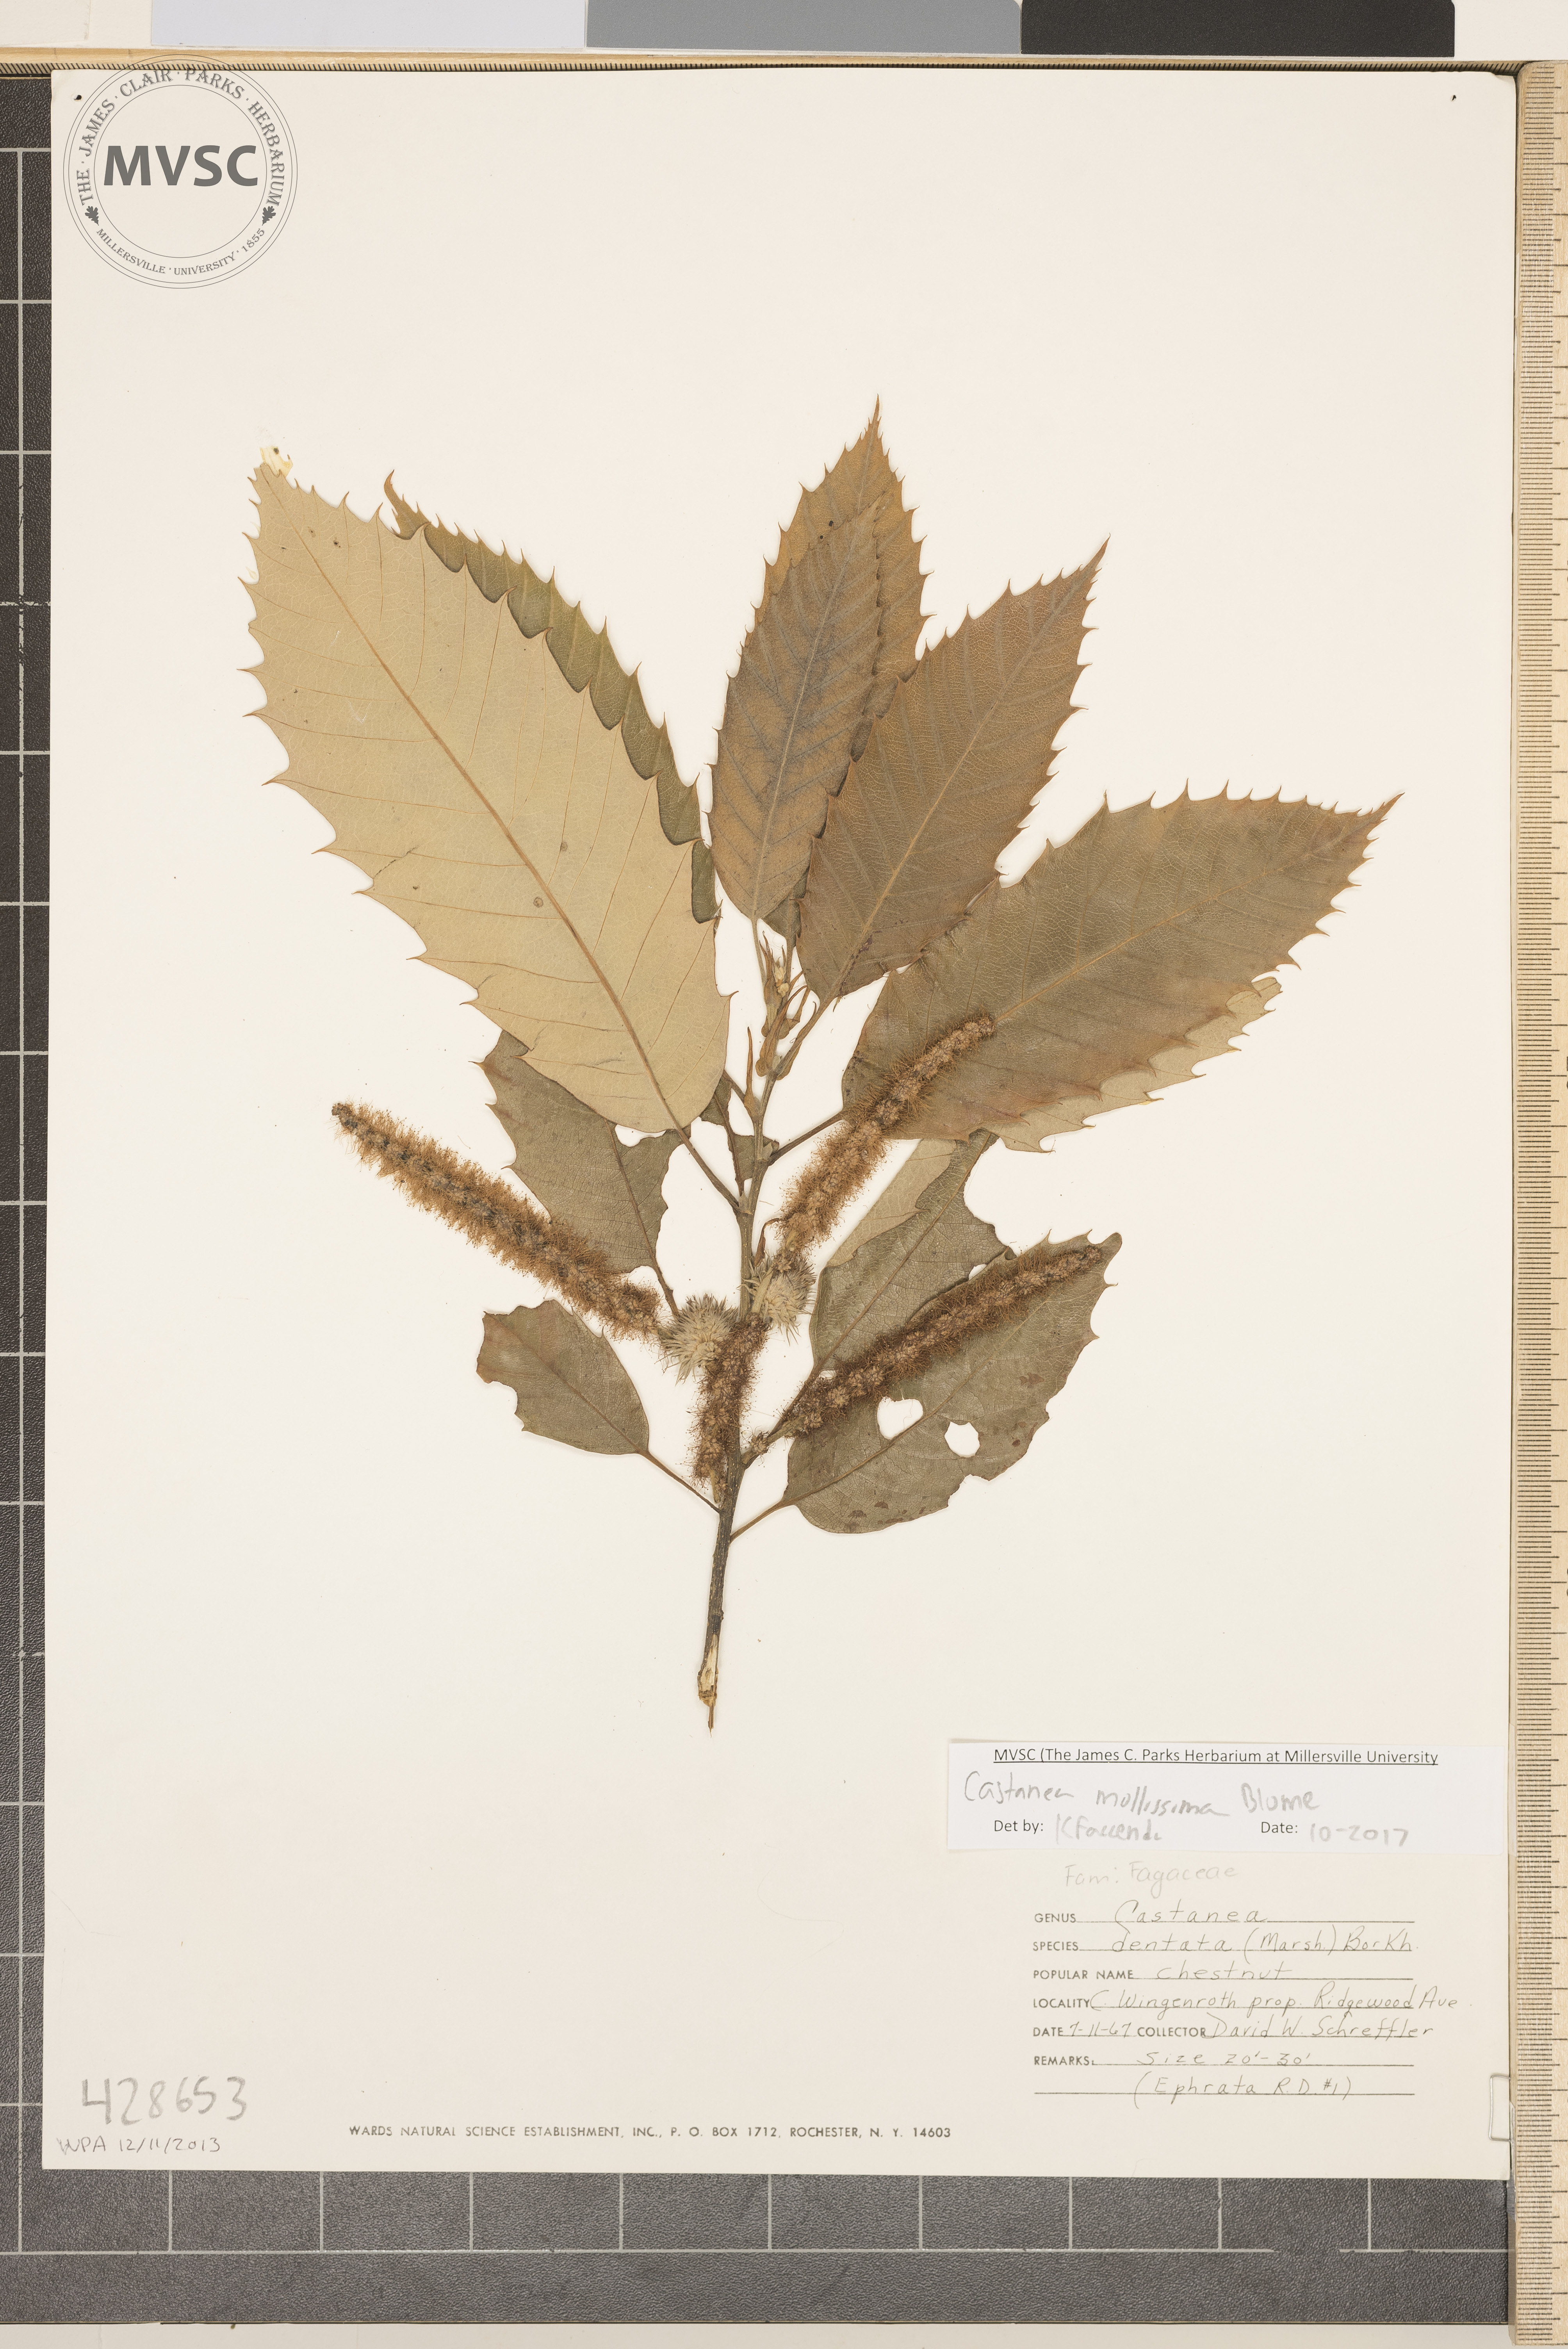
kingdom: Plantae
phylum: Tracheophyta
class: Magnoliopsida
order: Fagales
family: Fagaceae
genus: Castanea
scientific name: Castanea mollissima
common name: Chinese chestnut
